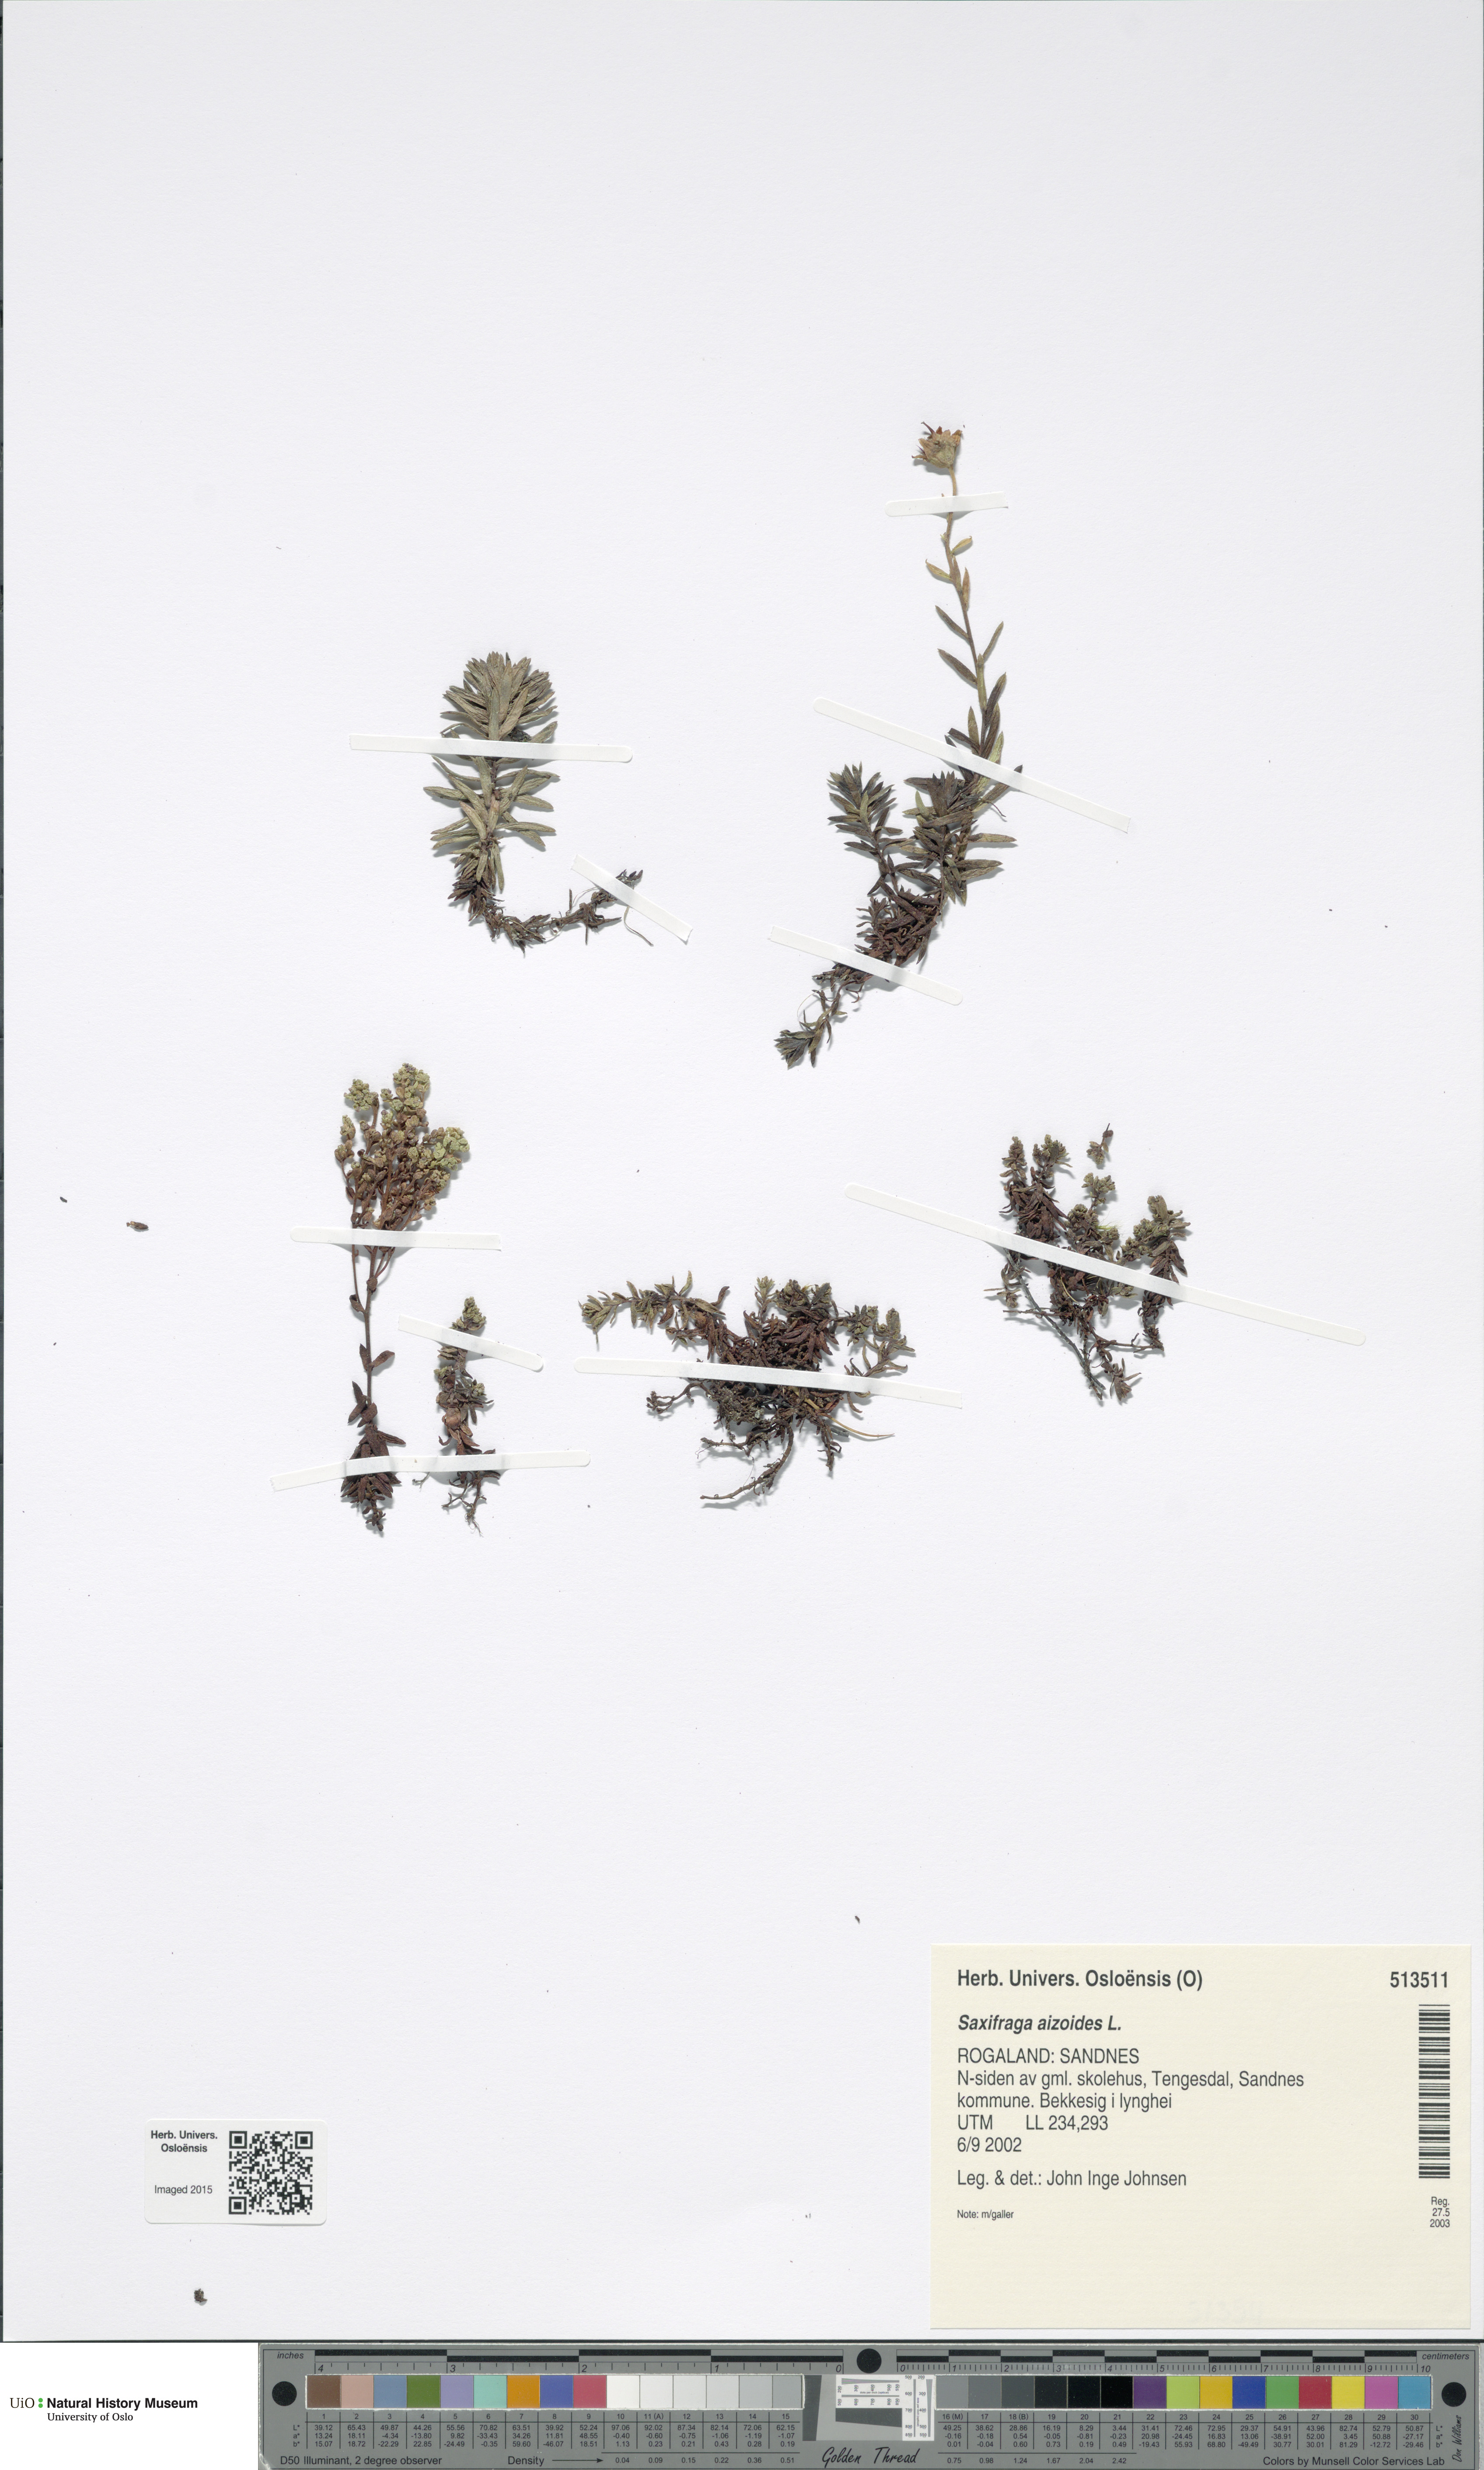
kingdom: Plantae
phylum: Tracheophyta
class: Magnoliopsida
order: Saxifragales
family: Saxifragaceae
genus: Saxifraga
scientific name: Saxifraga aizoides
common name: Yellow mountain saxifrage
